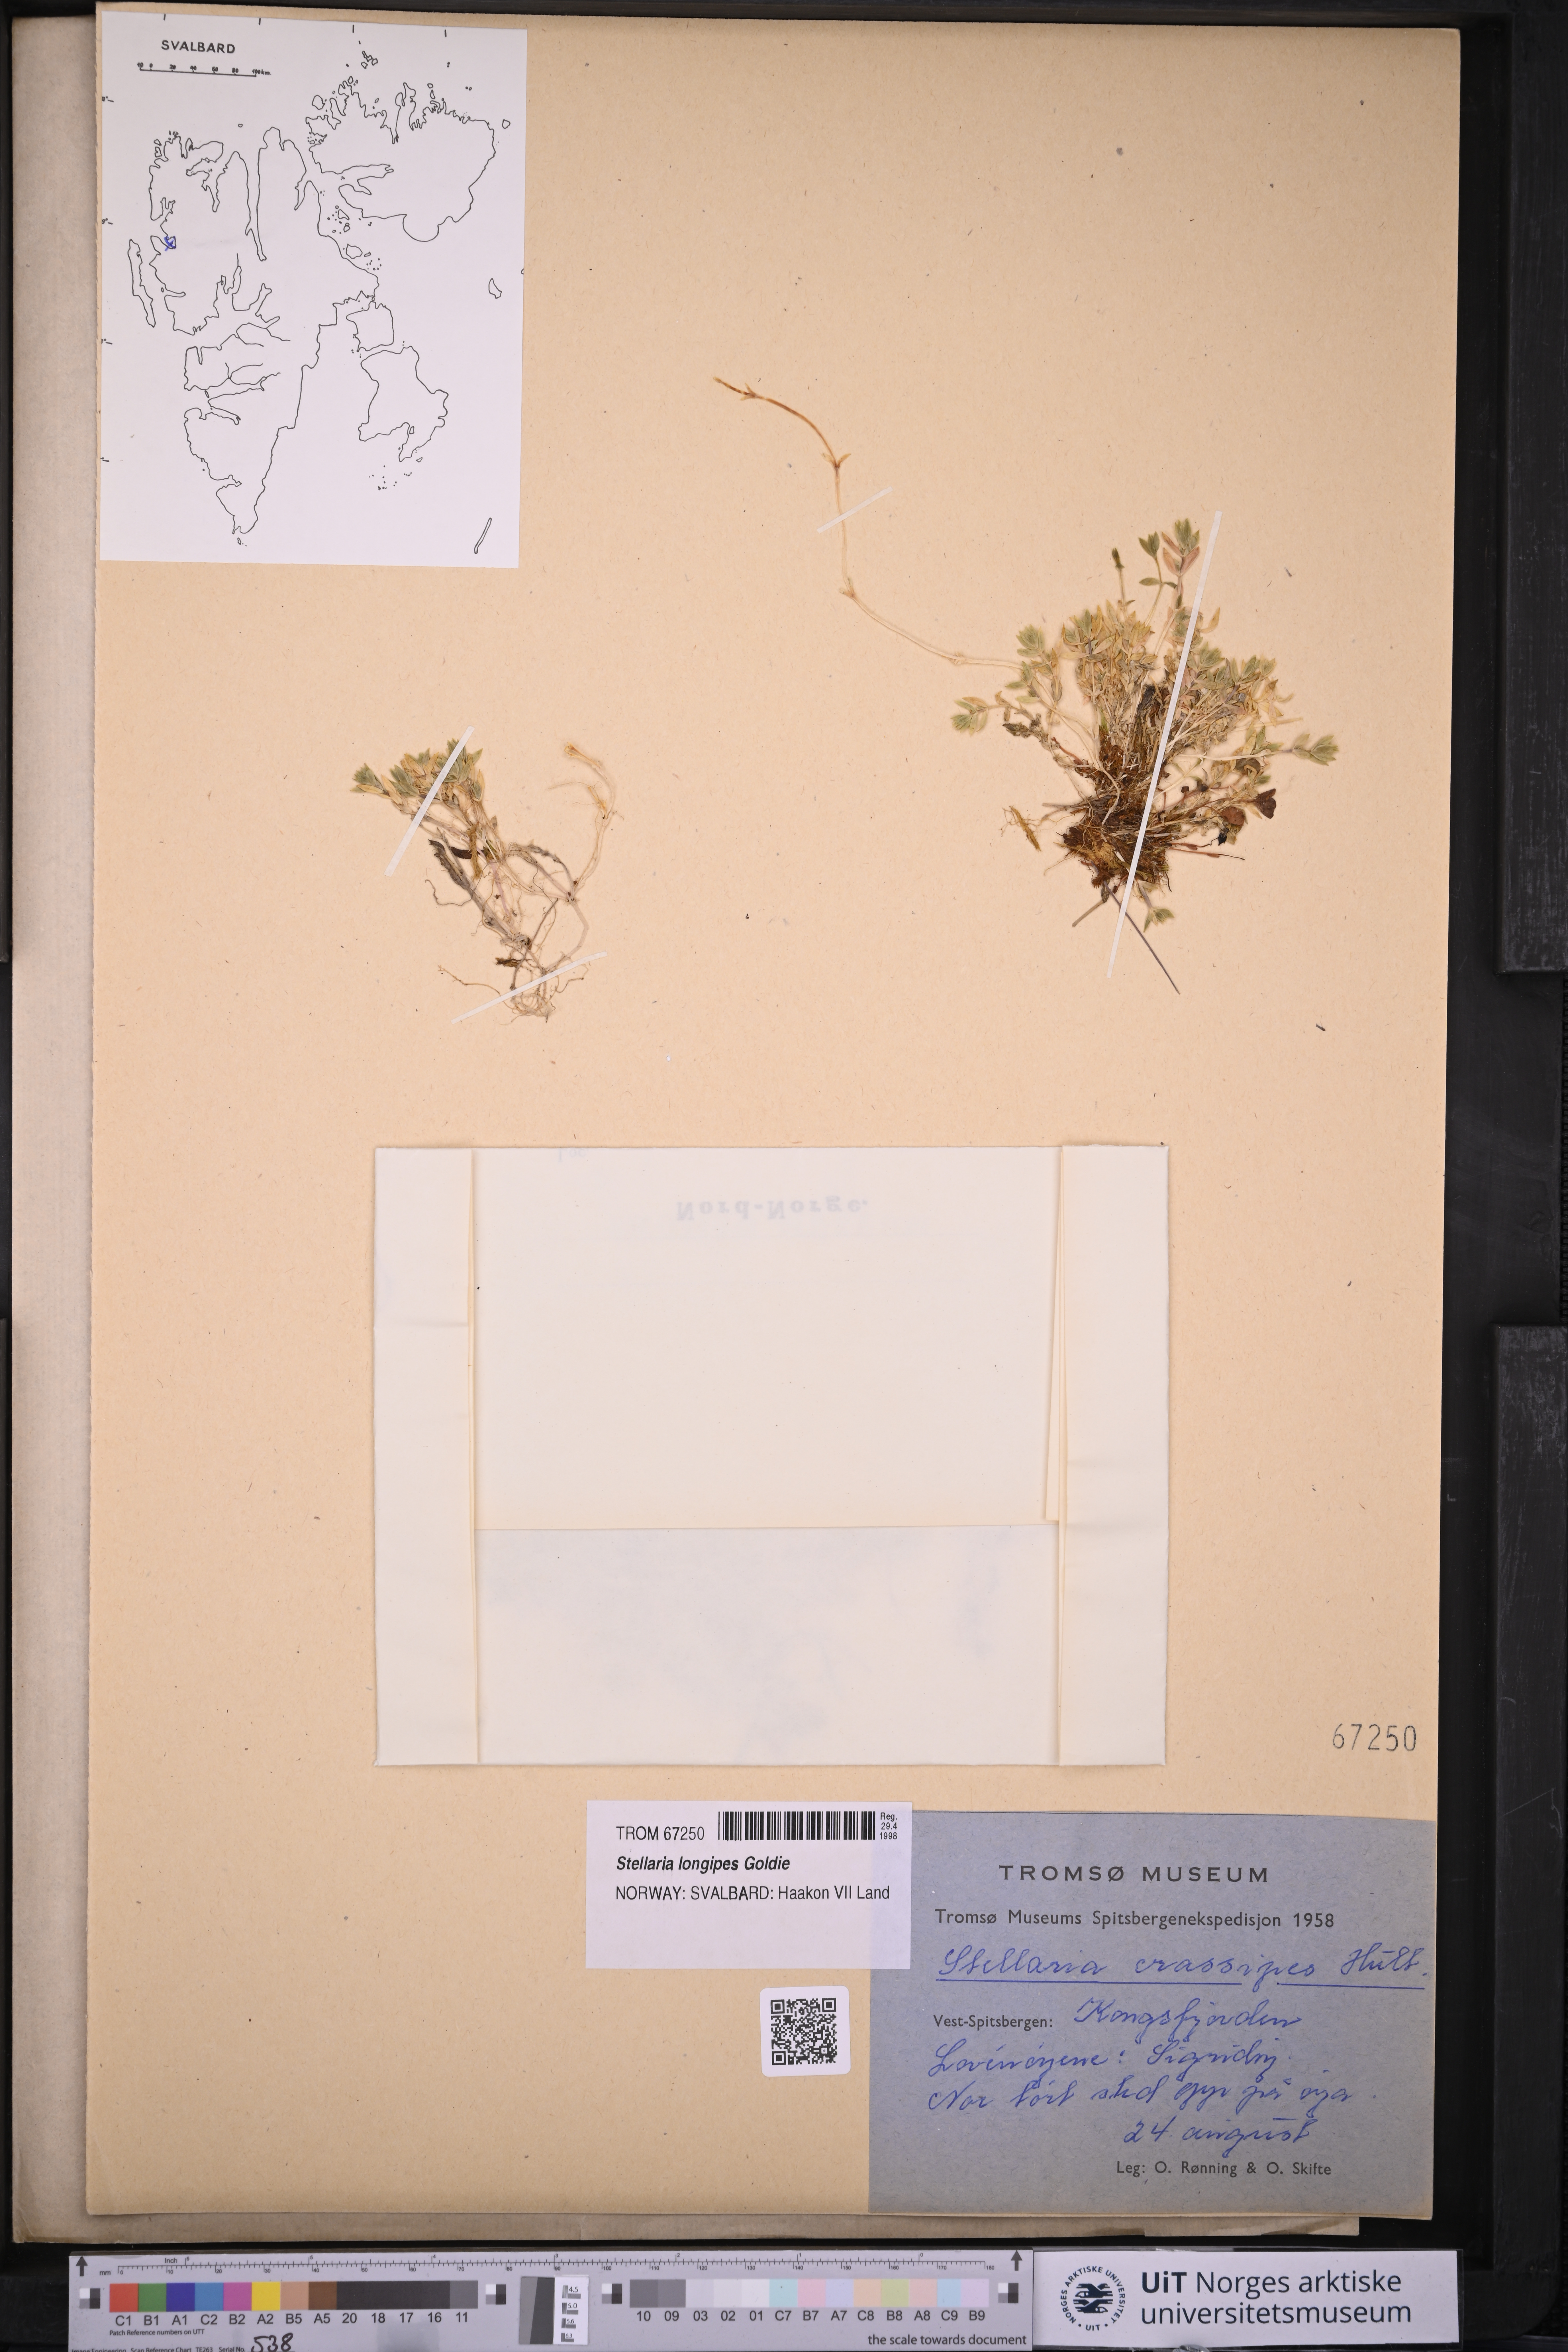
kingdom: Plantae
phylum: Tracheophyta
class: Magnoliopsida
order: Caryophyllales
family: Caryophyllaceae
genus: Stellaria
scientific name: Stellaria longipes
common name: Goldie's starwort
